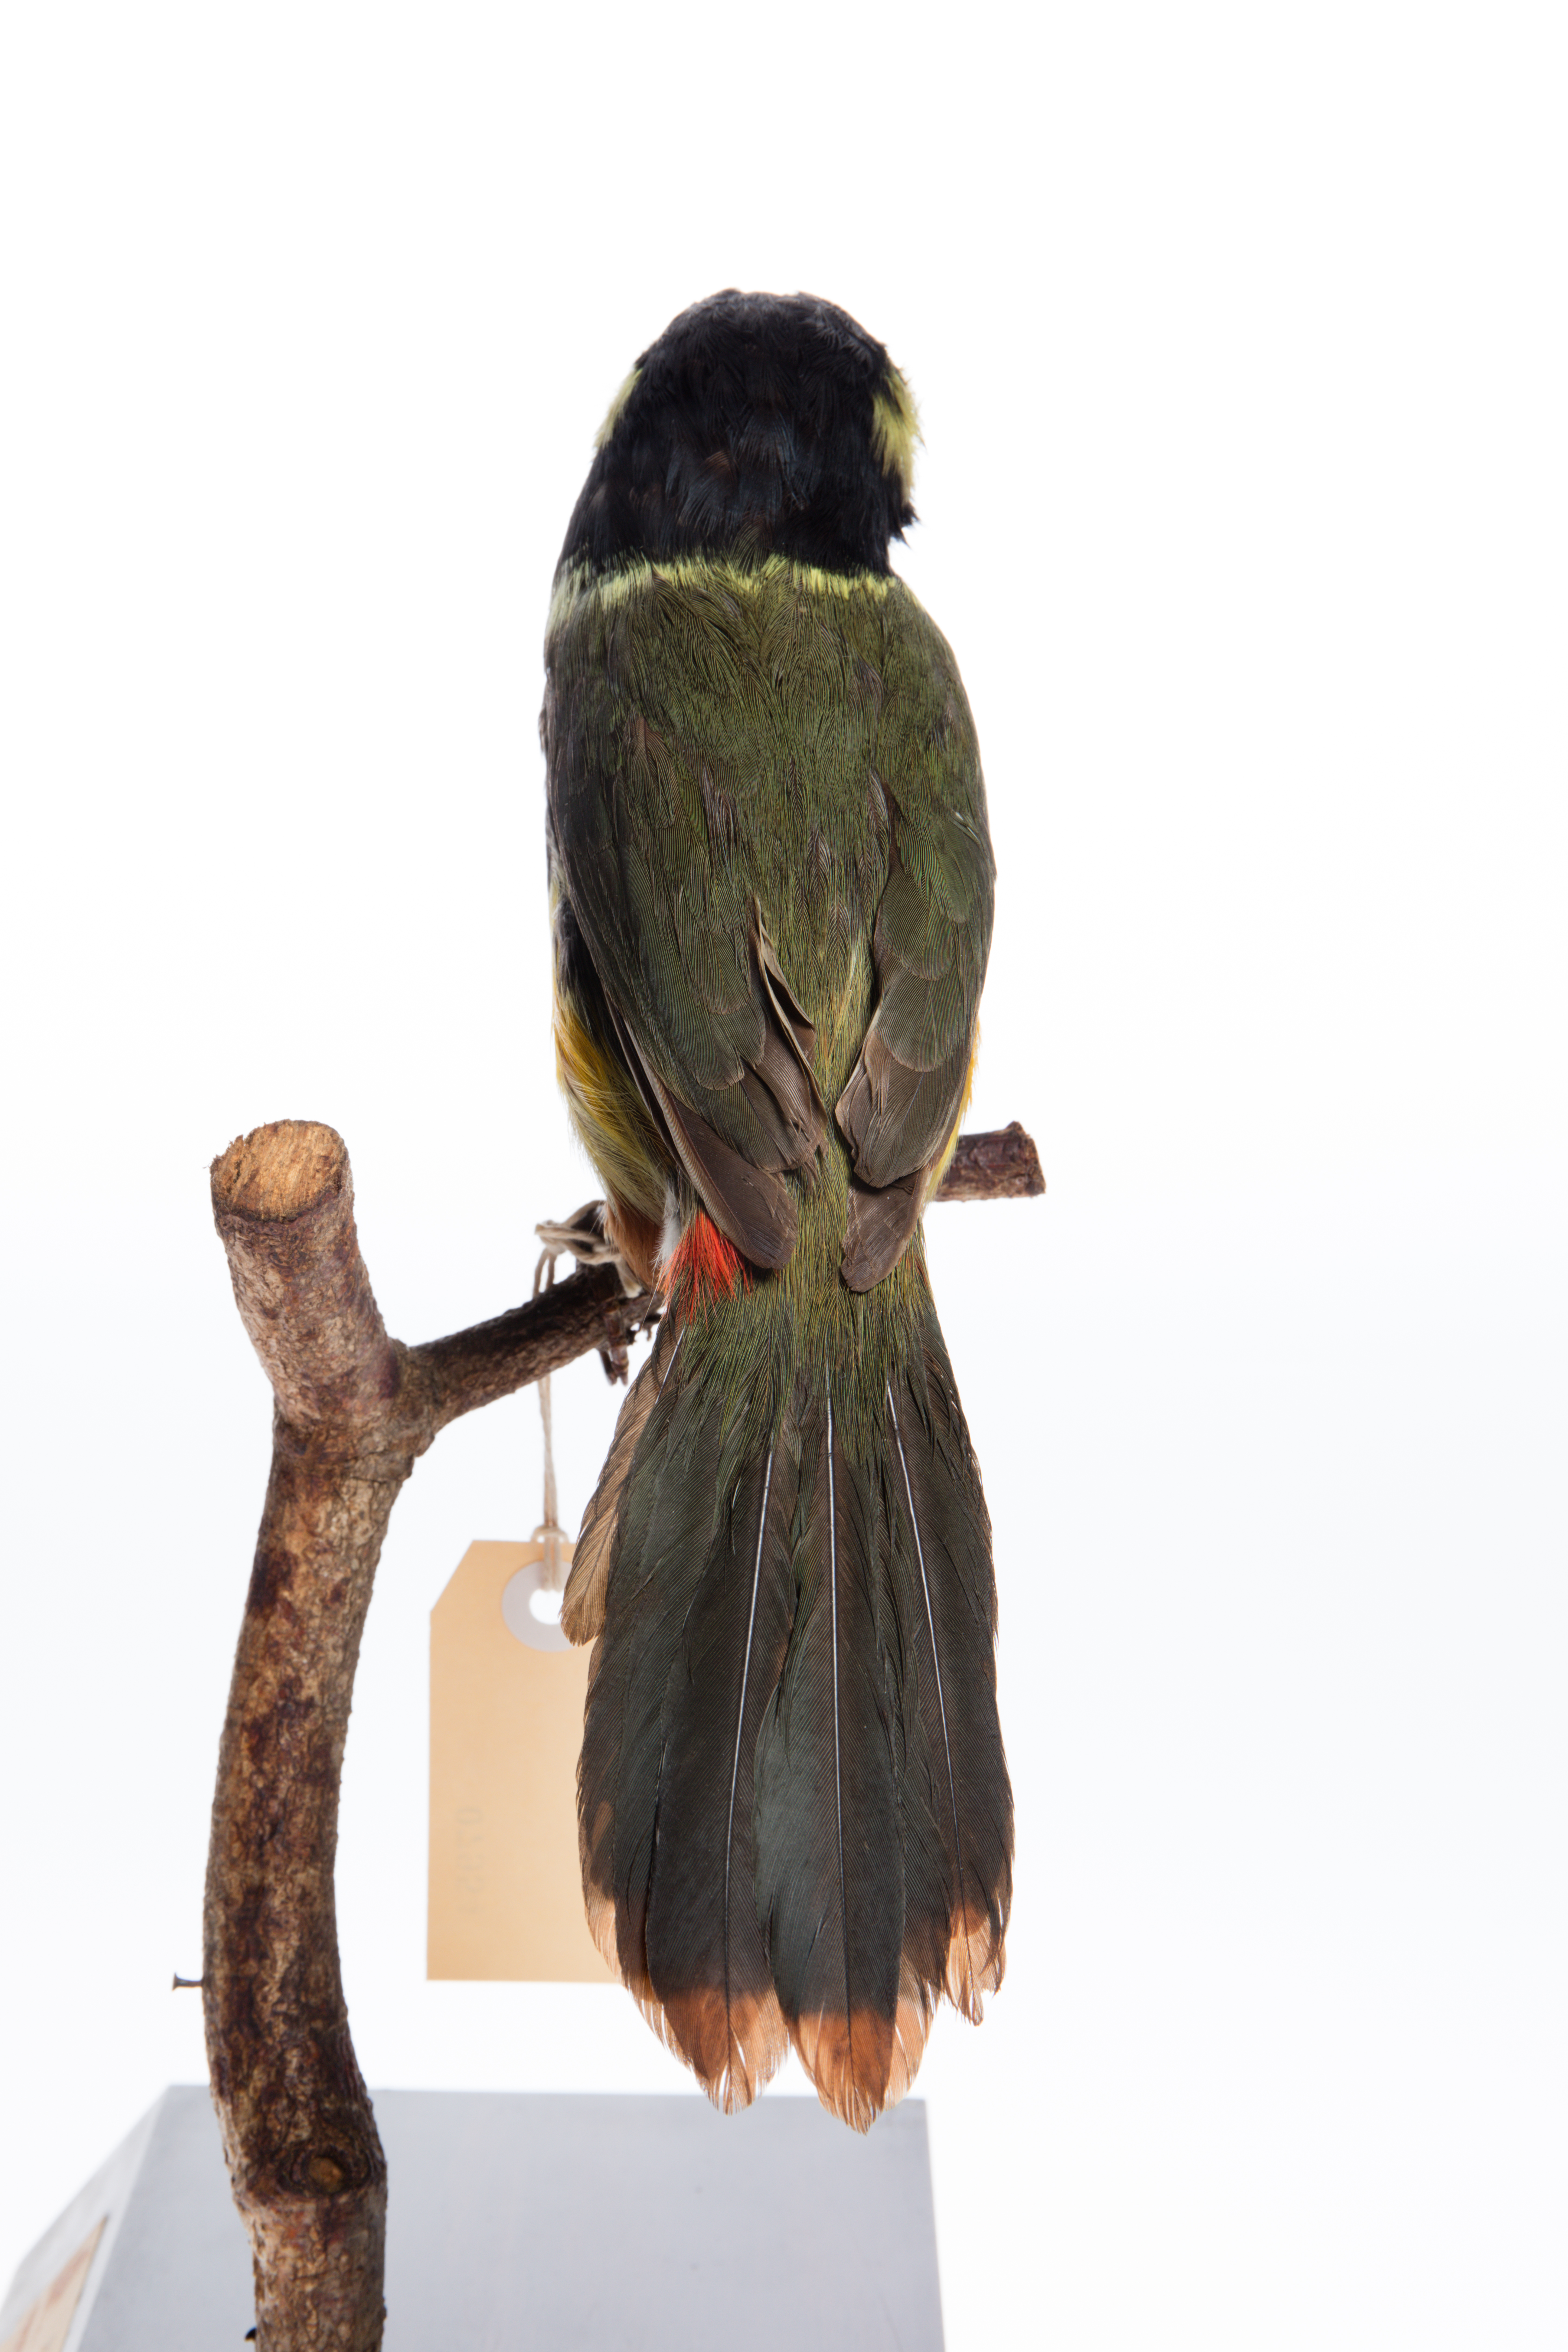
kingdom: Animalia
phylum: Chordata
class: Aves
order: Piciformes
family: Ramphastidae
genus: Selenidera
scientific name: Selenidera gouldii
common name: Gould's toucanet
